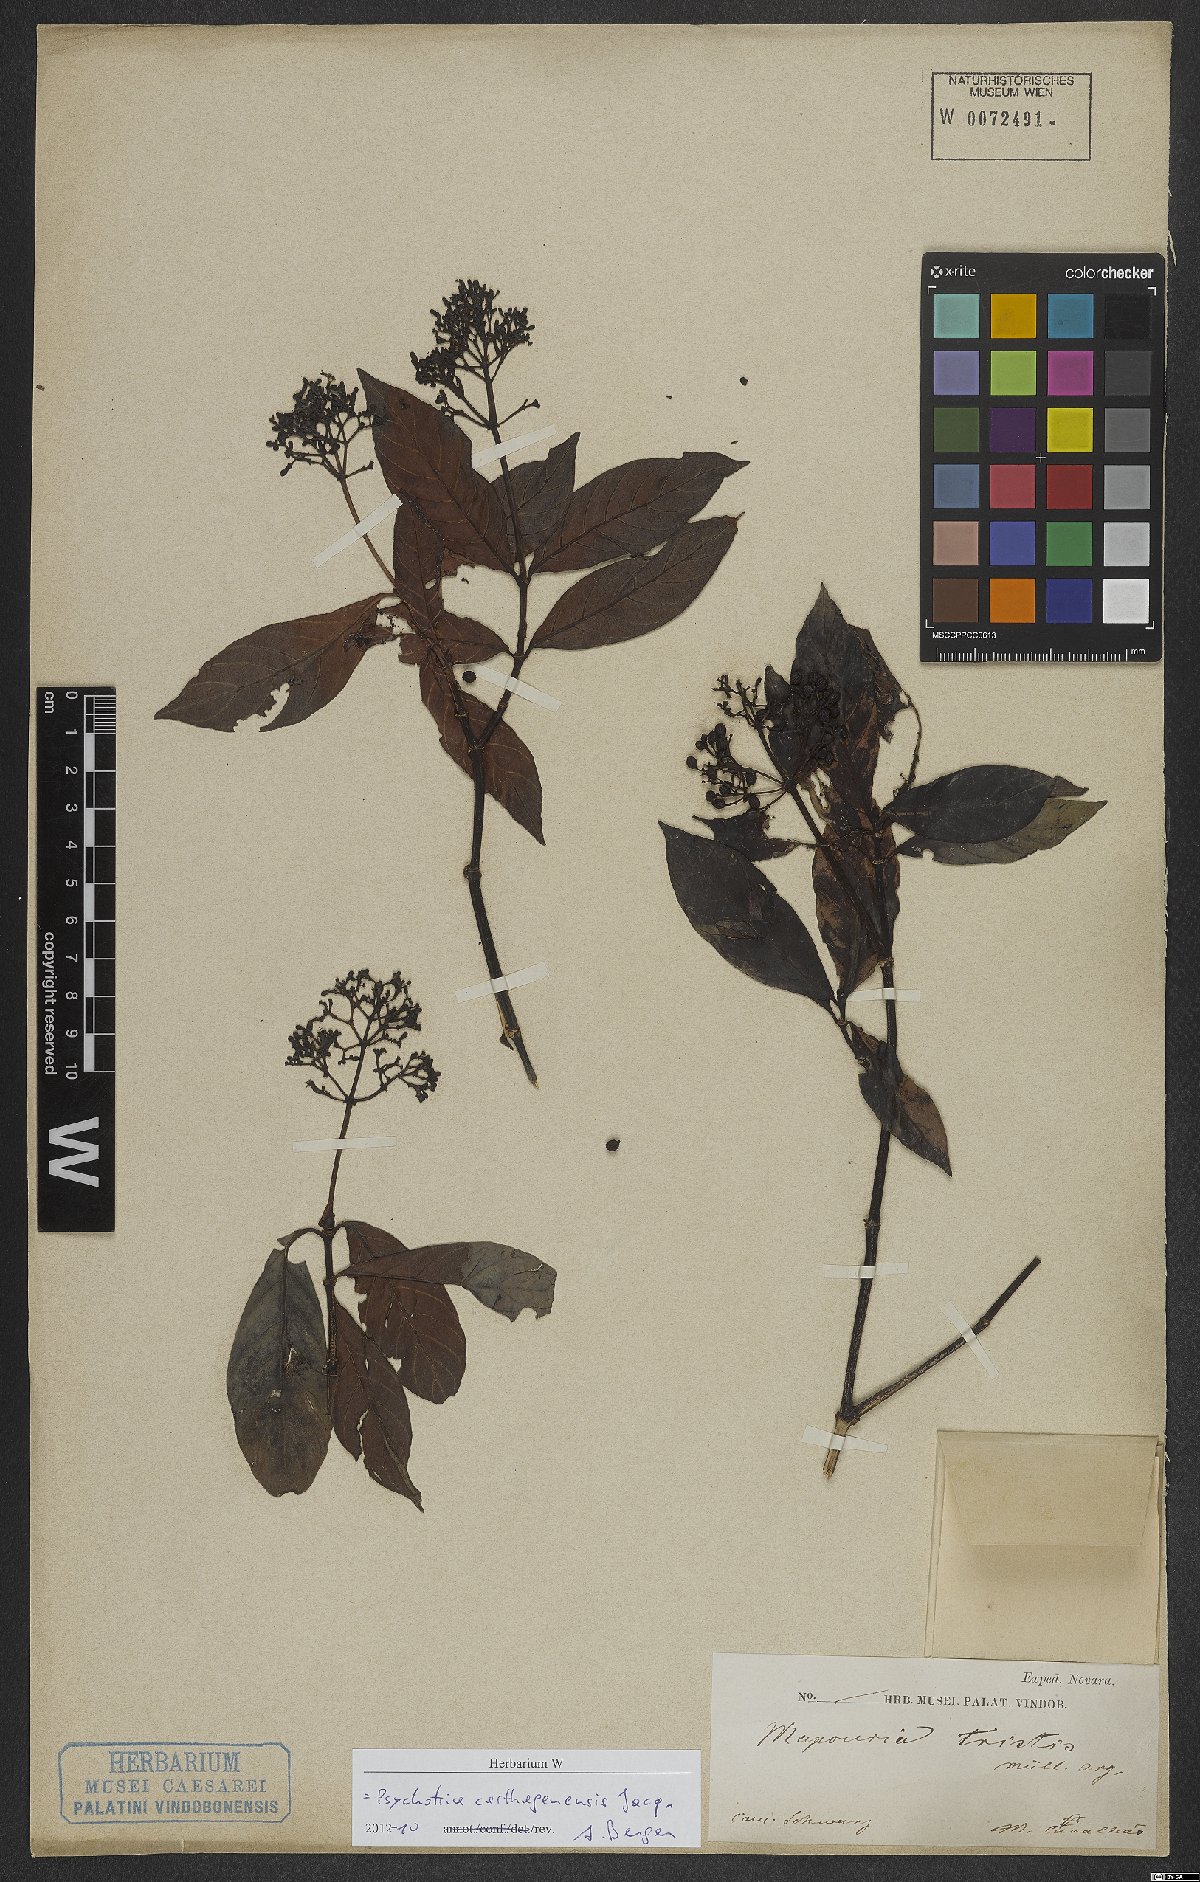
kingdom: Plantae
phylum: Tracheophyta
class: Magnoliopsida
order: Gentianales
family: Rubiaceae
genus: Psychotria
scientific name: Psychotria carthagenensis
